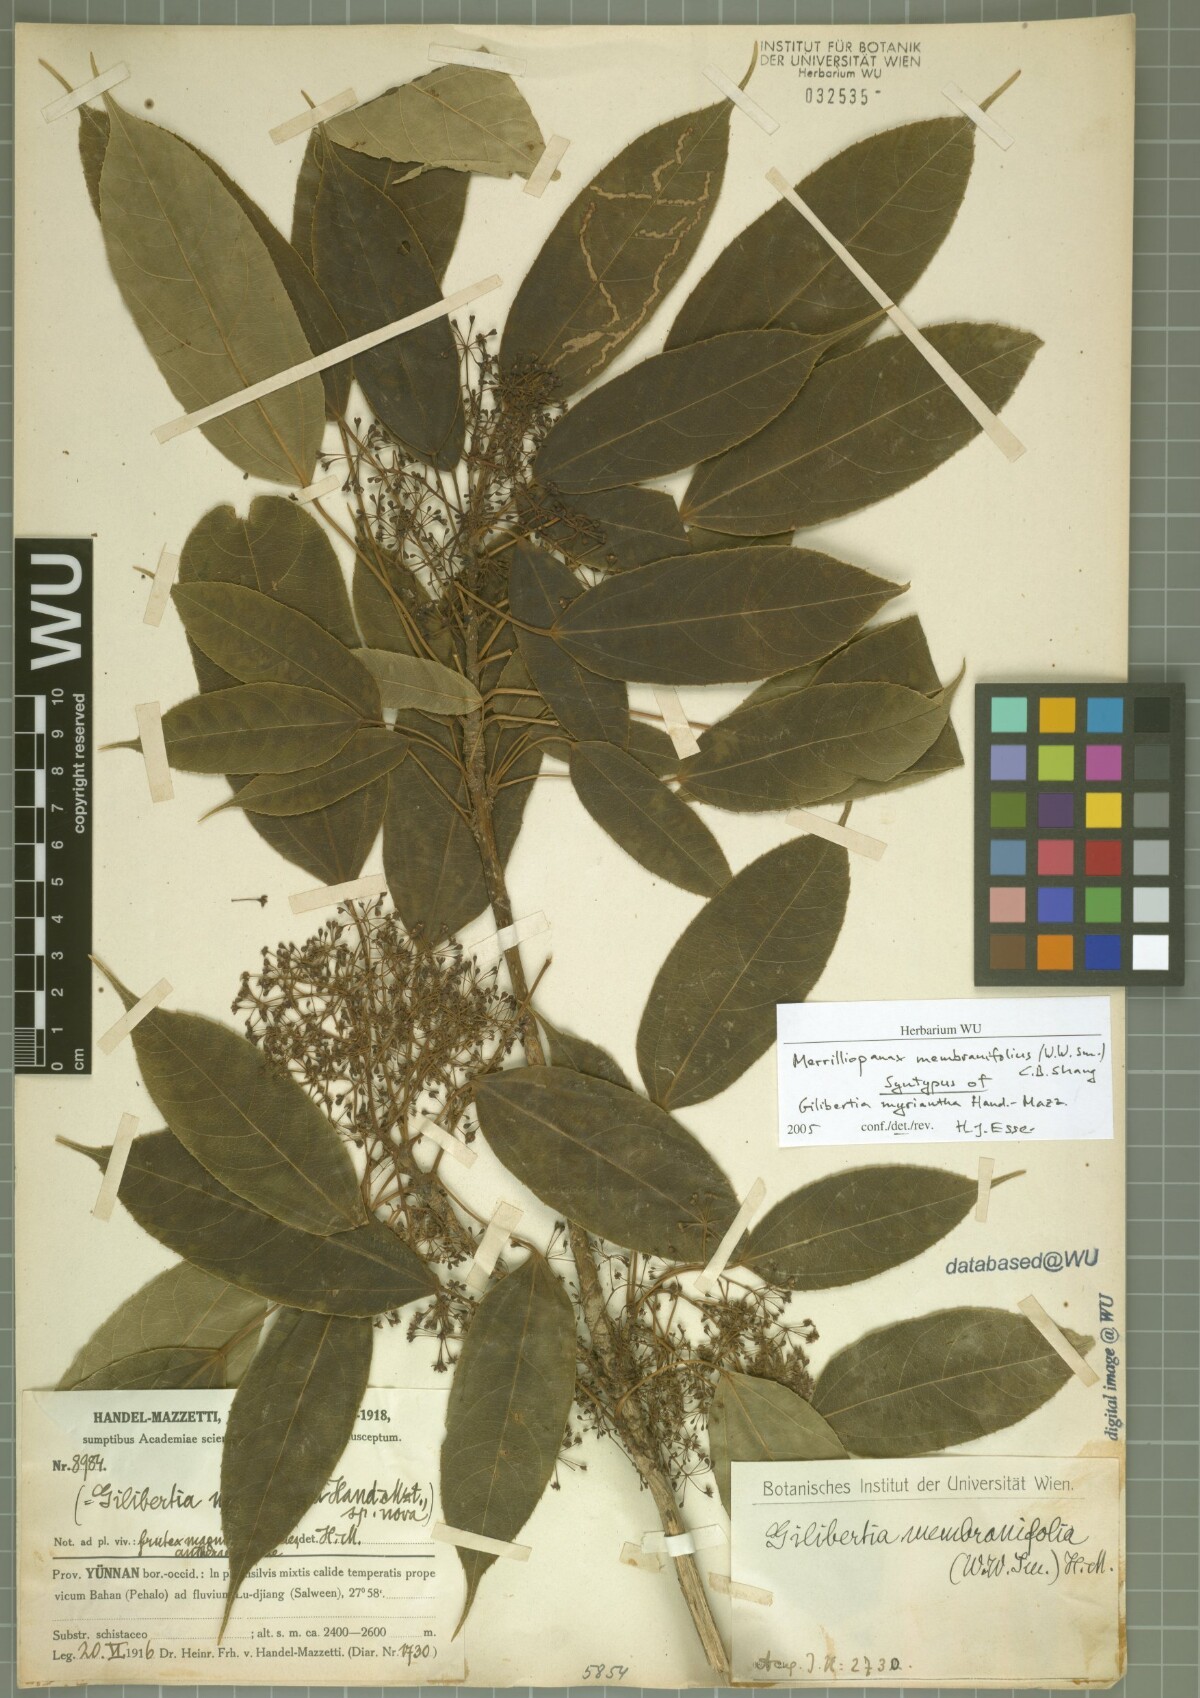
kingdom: Plantae
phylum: Tracheophyta
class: Magnoliopsida
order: Apiales
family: Araliaceae
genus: Merrilliopanax
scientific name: Merrilliopanax membranifolius
